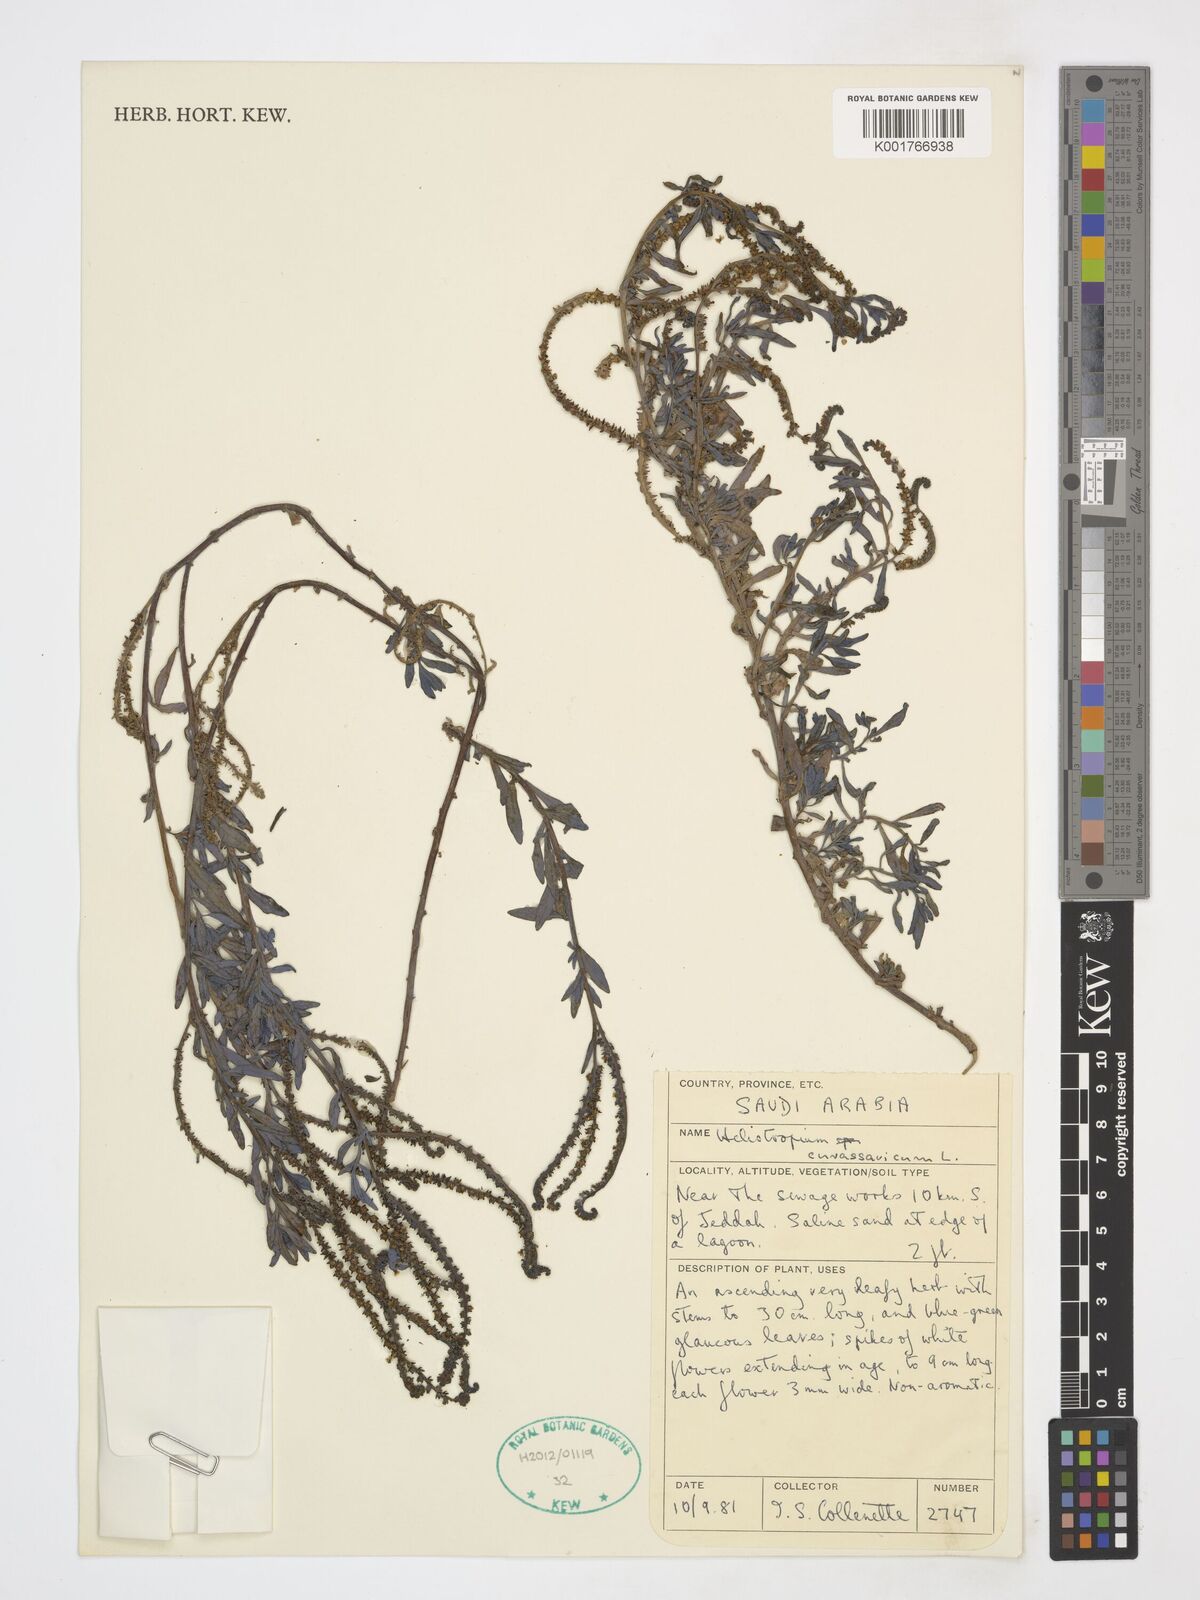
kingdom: Plantae
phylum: Tracheophyta
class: Magnoliopsida
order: Boraginales
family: Heliotropiaceae
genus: Heliotropium
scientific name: Heliotropium curassavicum
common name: Seaside heliotrope
